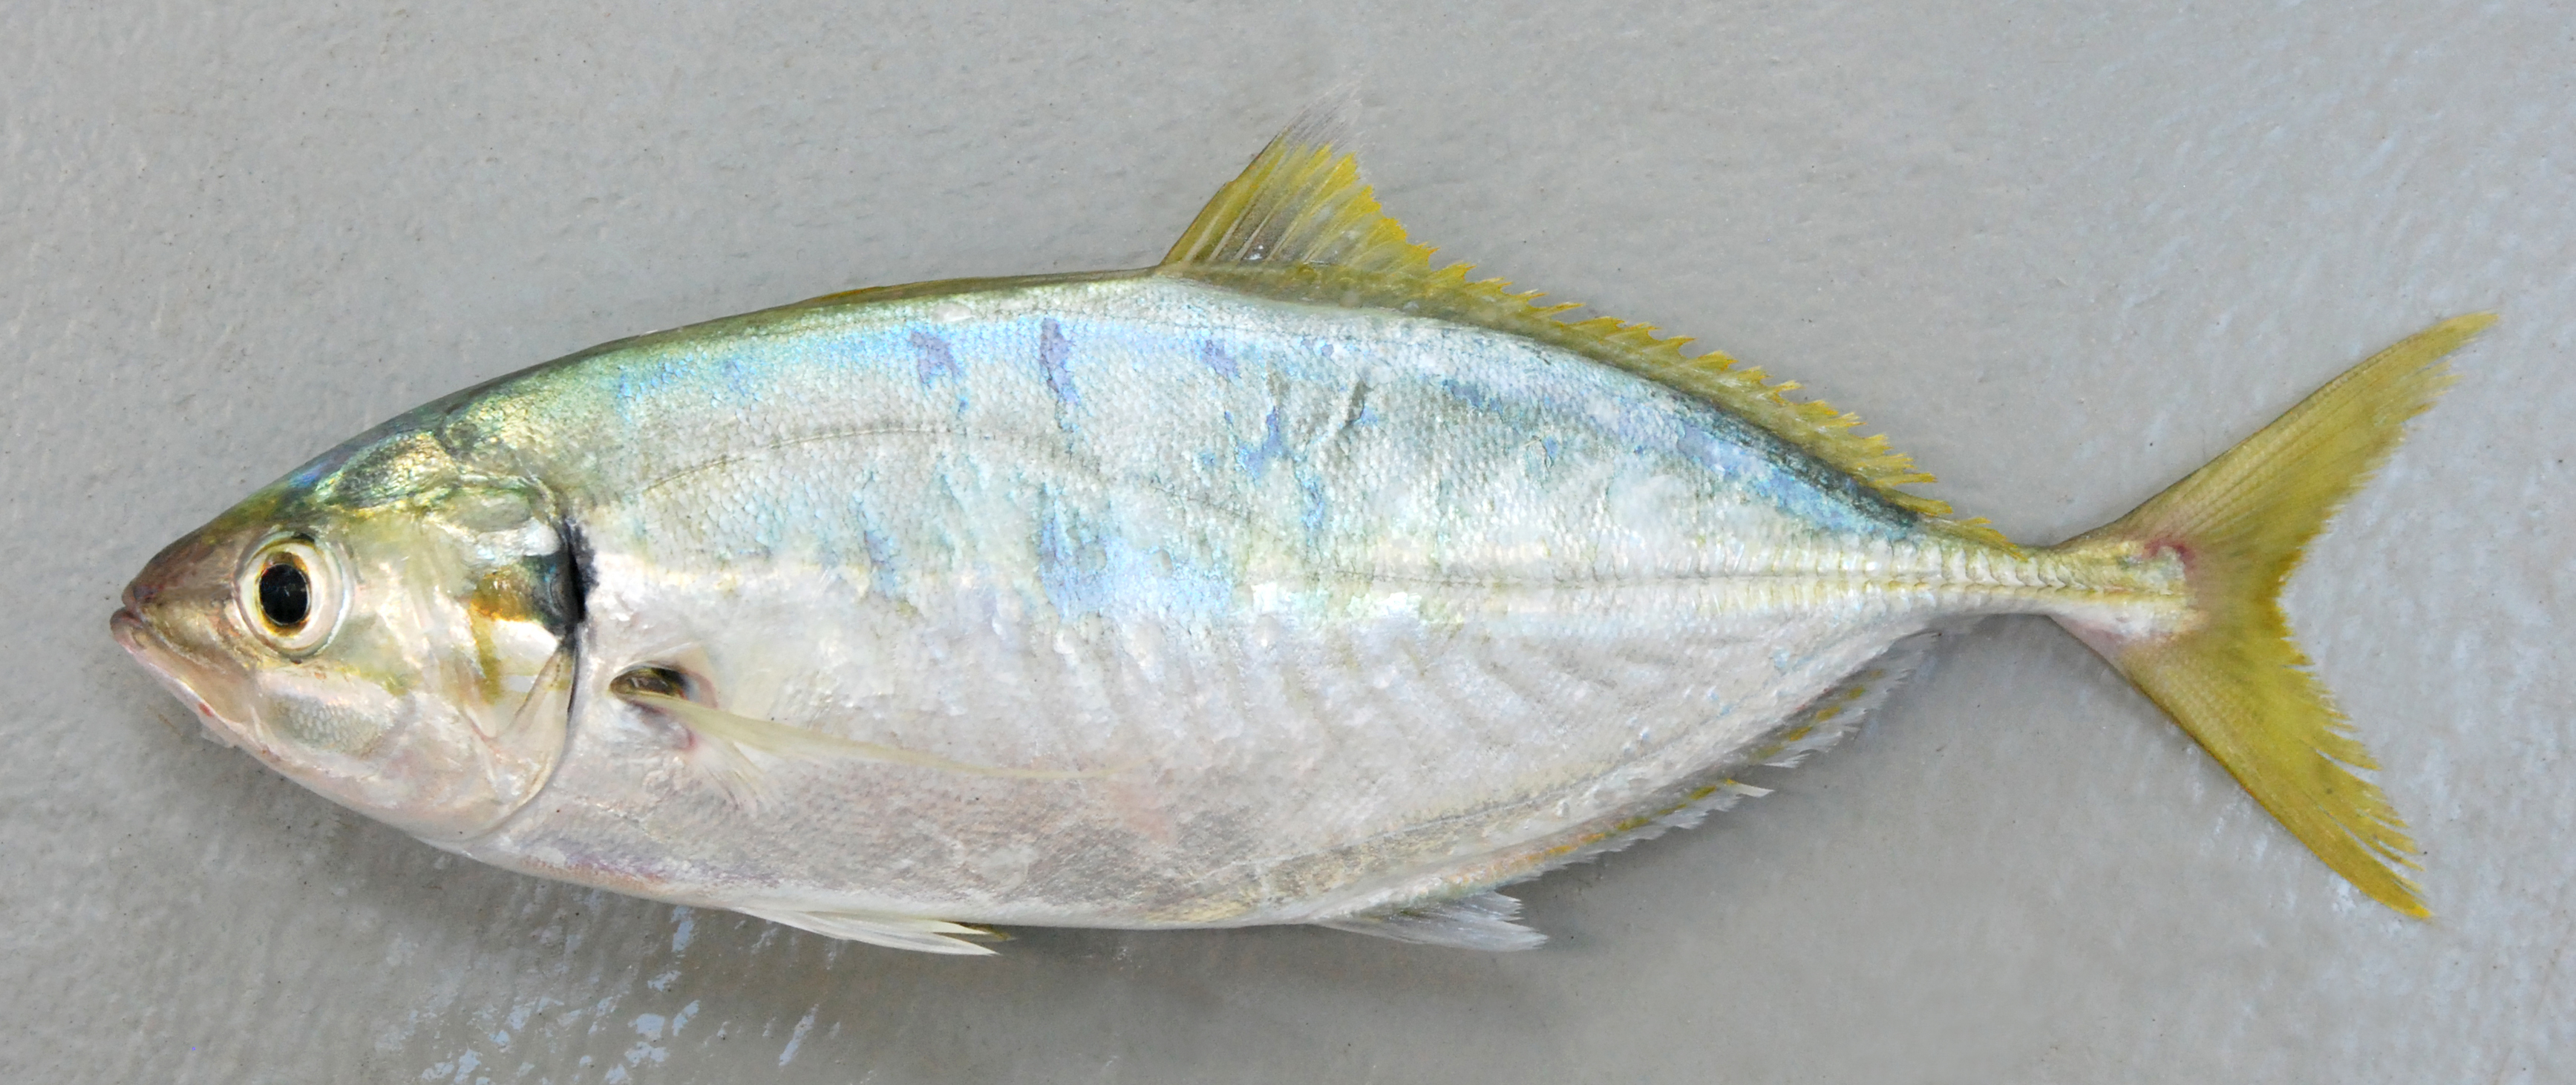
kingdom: Animalia
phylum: Chordata
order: Perciformes
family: Carangidae
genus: Atule
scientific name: Atule mate
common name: Yellowtail scad
